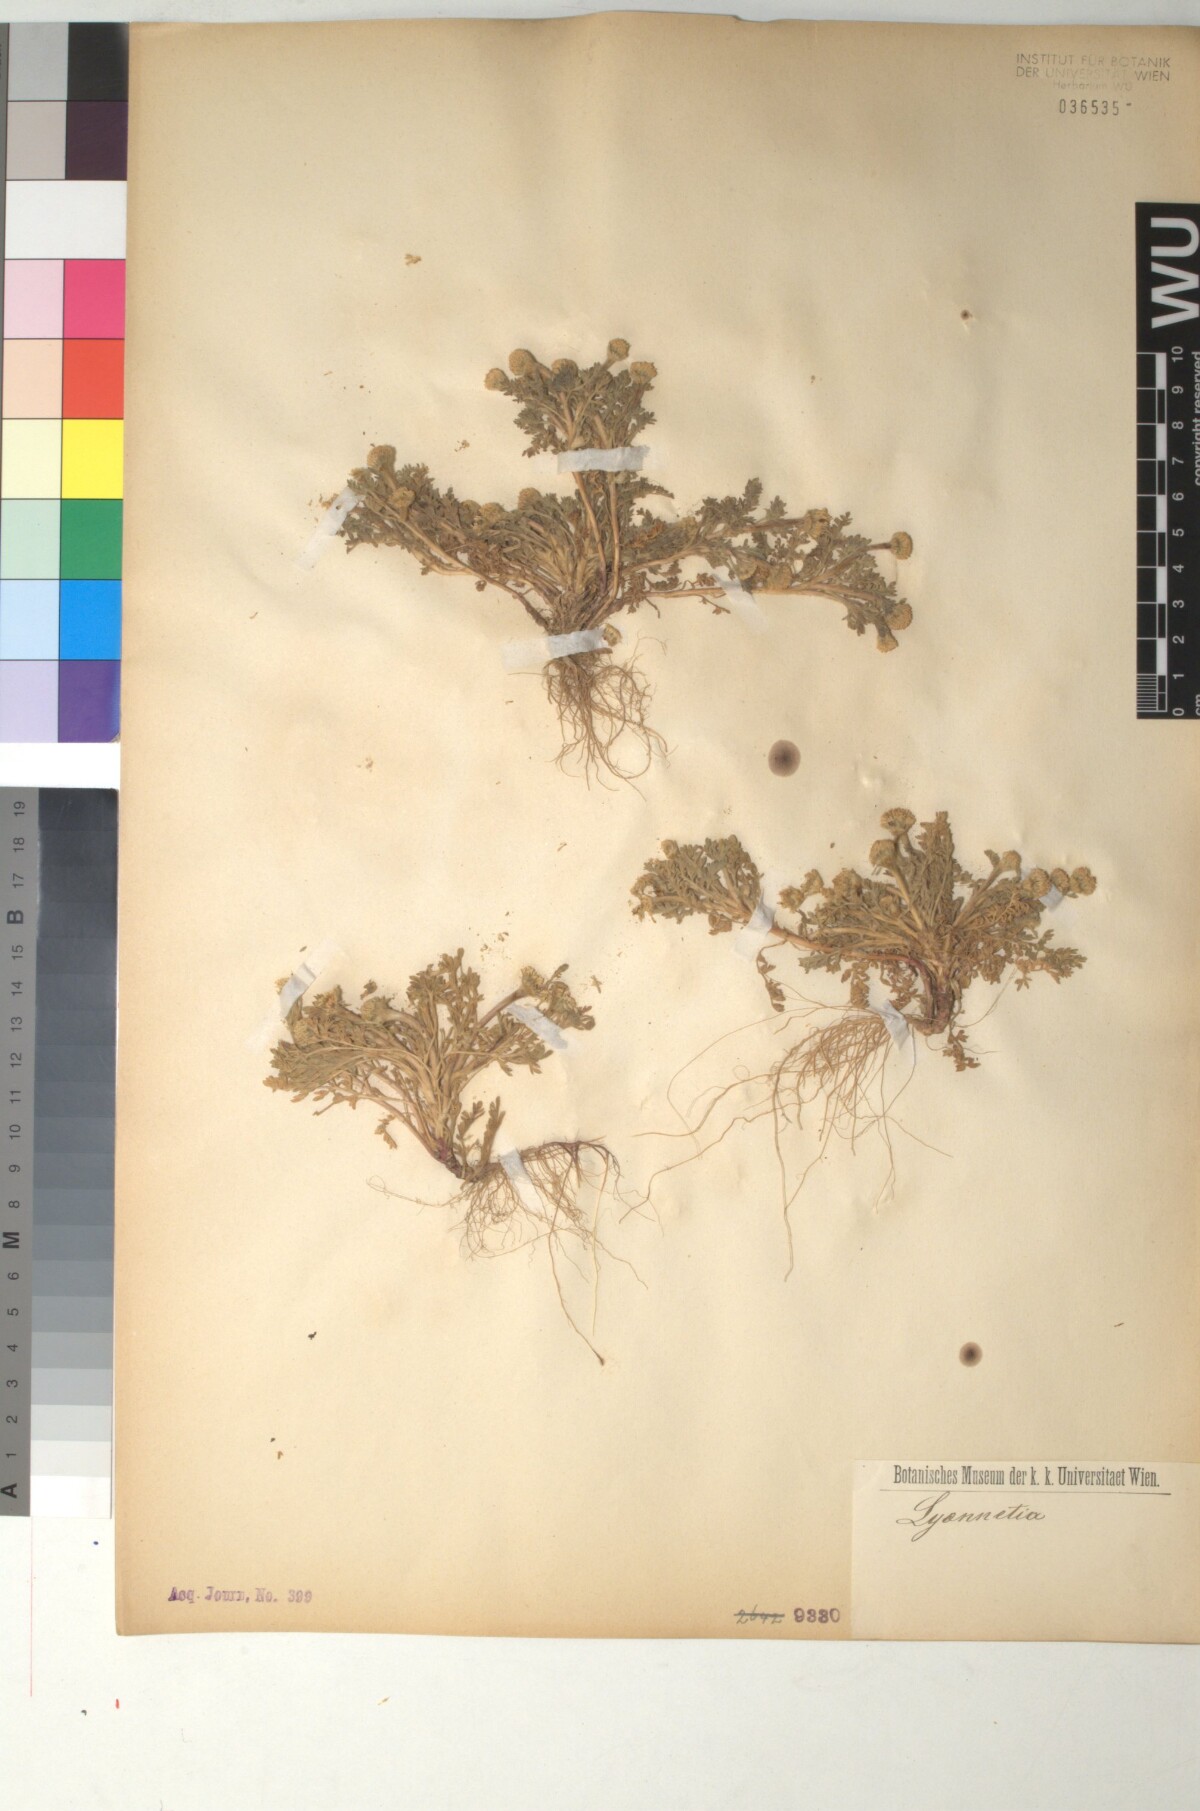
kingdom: Plantae
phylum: Tracheophyta
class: Magnoliopsida
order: Asterales
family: Asteraceae
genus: Anthemis
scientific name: Anthemis rigida
